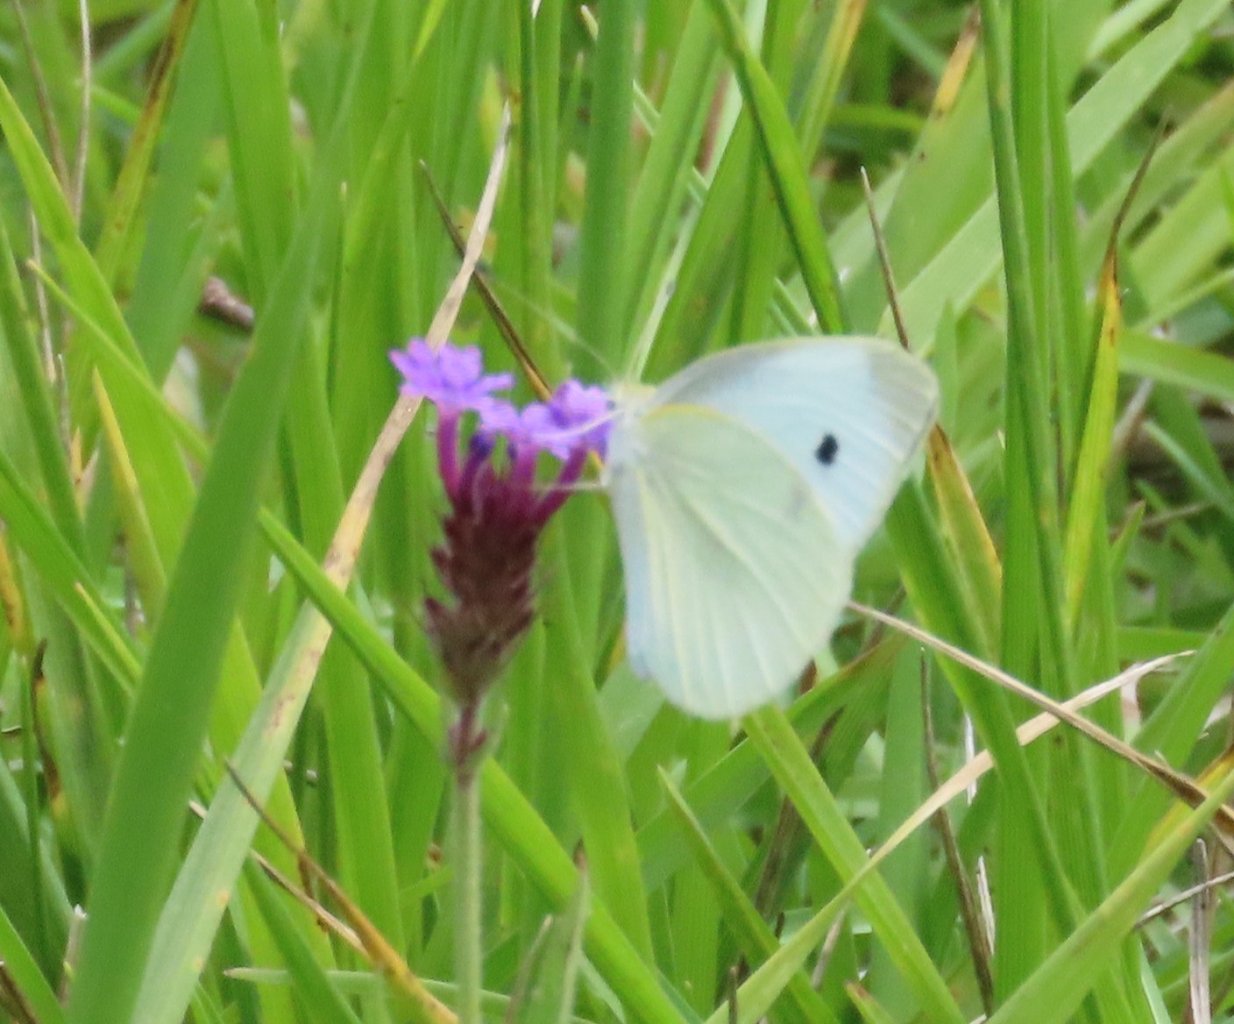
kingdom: Animalia
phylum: Arthropoda
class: Insecta
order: Lepidoptera
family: Pieridae
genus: Pieris
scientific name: Pieris rapae
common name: Cabbage White
